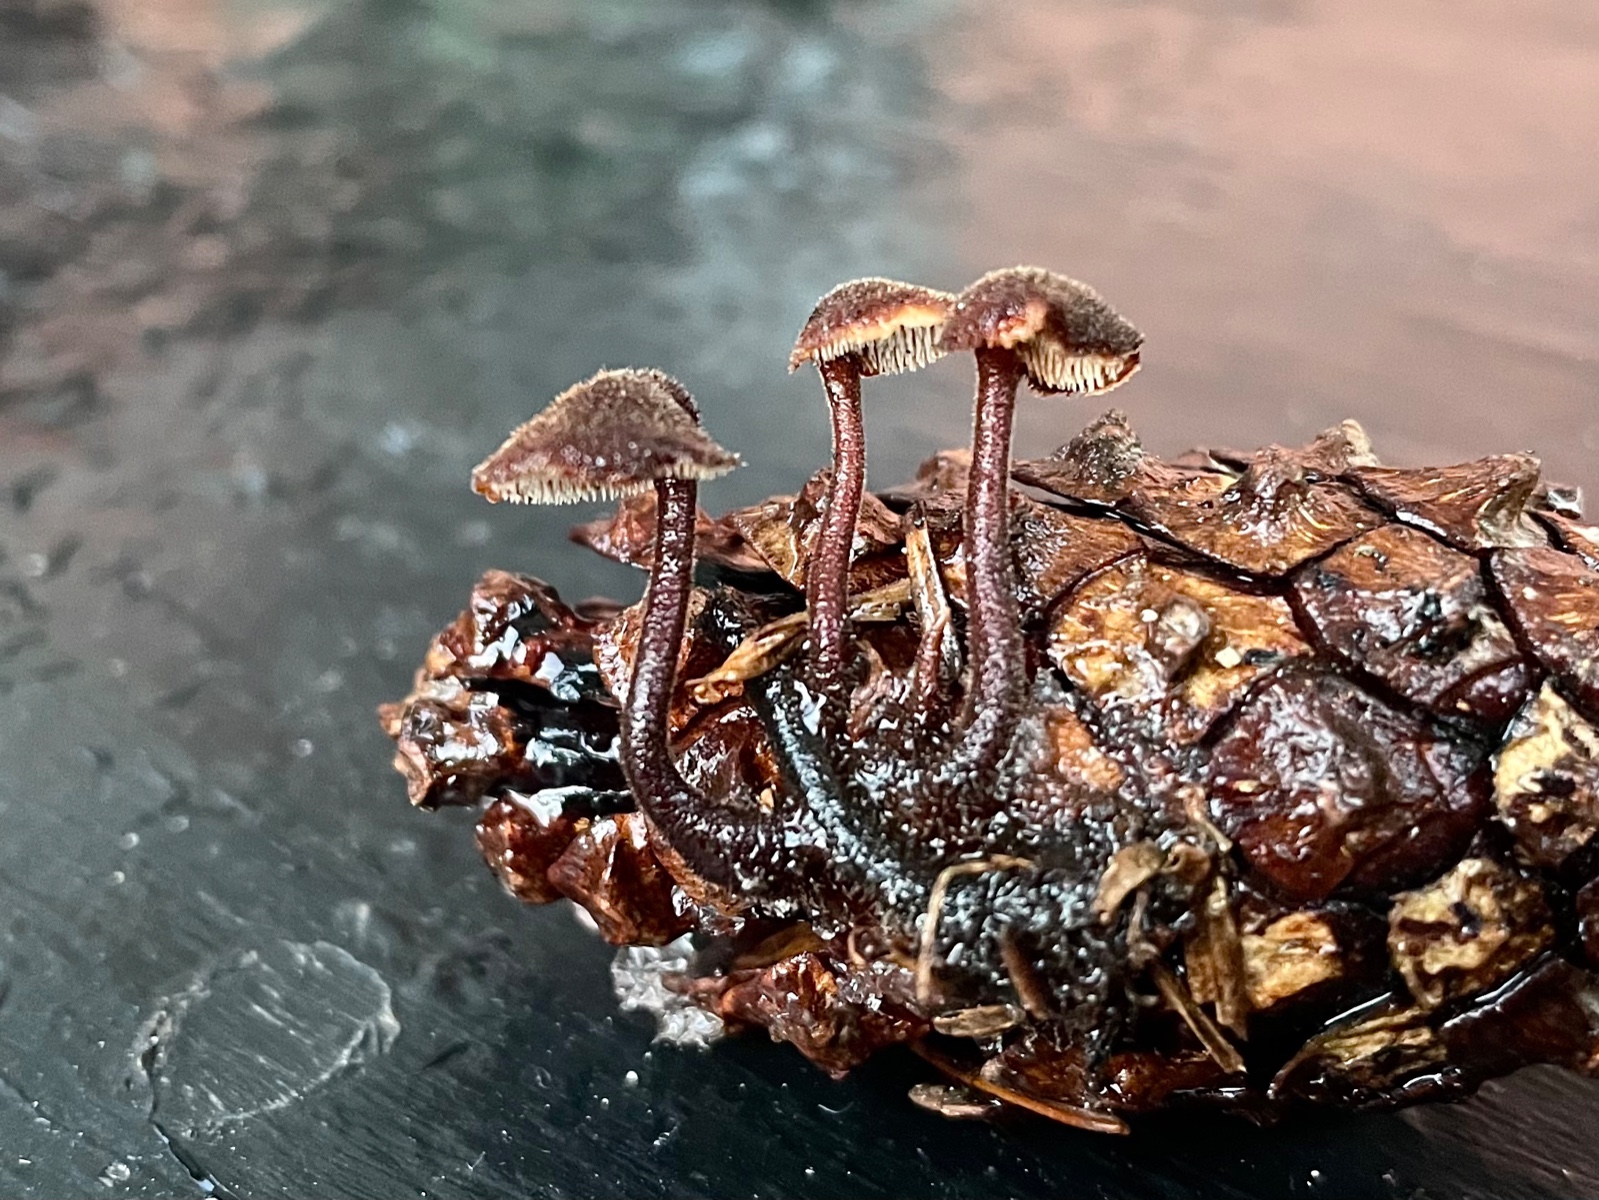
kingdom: Fungi
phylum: Basidiomycota
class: Agaricomycetes
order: Russulales
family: Auriscalpiaceae
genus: Auriscalpium
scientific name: Auriscalpium vulgare
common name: koglepigsvamp
